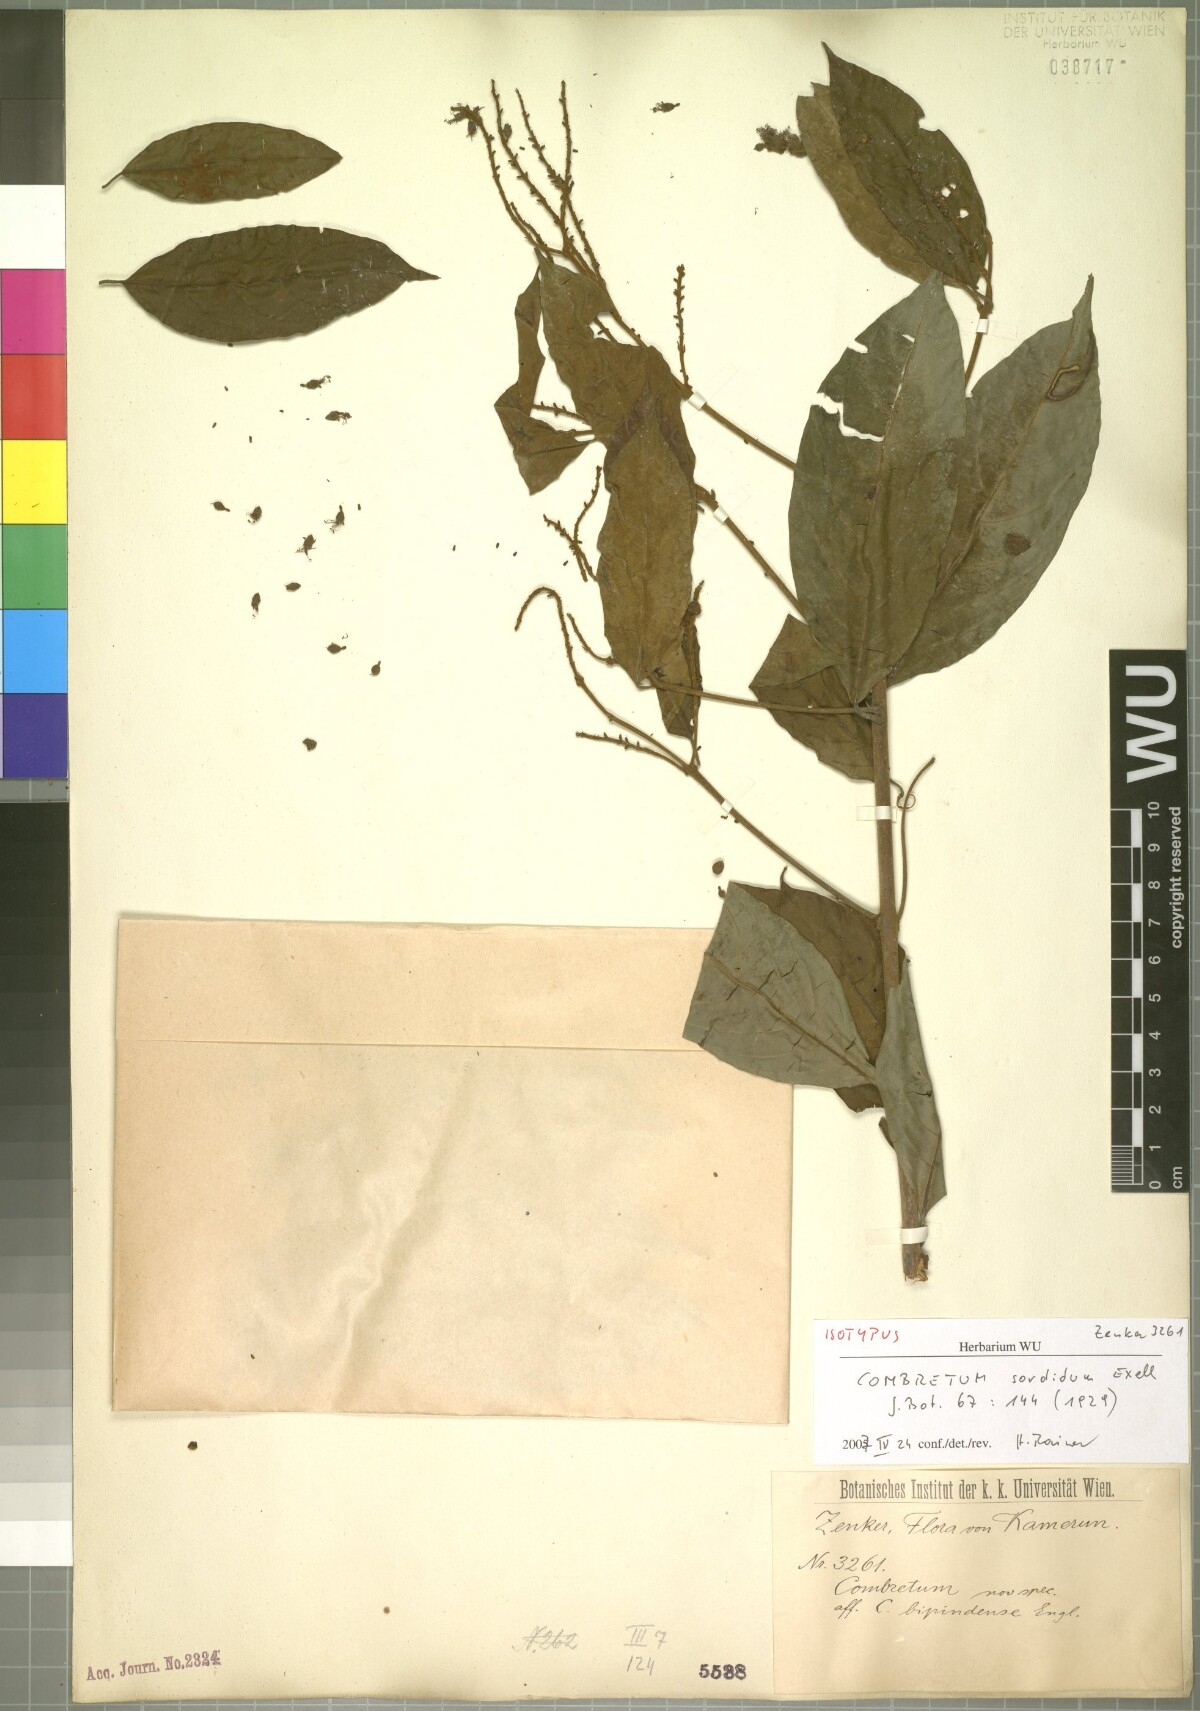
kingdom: Plantae
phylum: Tracheophyta
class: Magnoliopsida
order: Myrtales
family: Combretaceae
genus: Combretum
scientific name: Combretum sordidum
